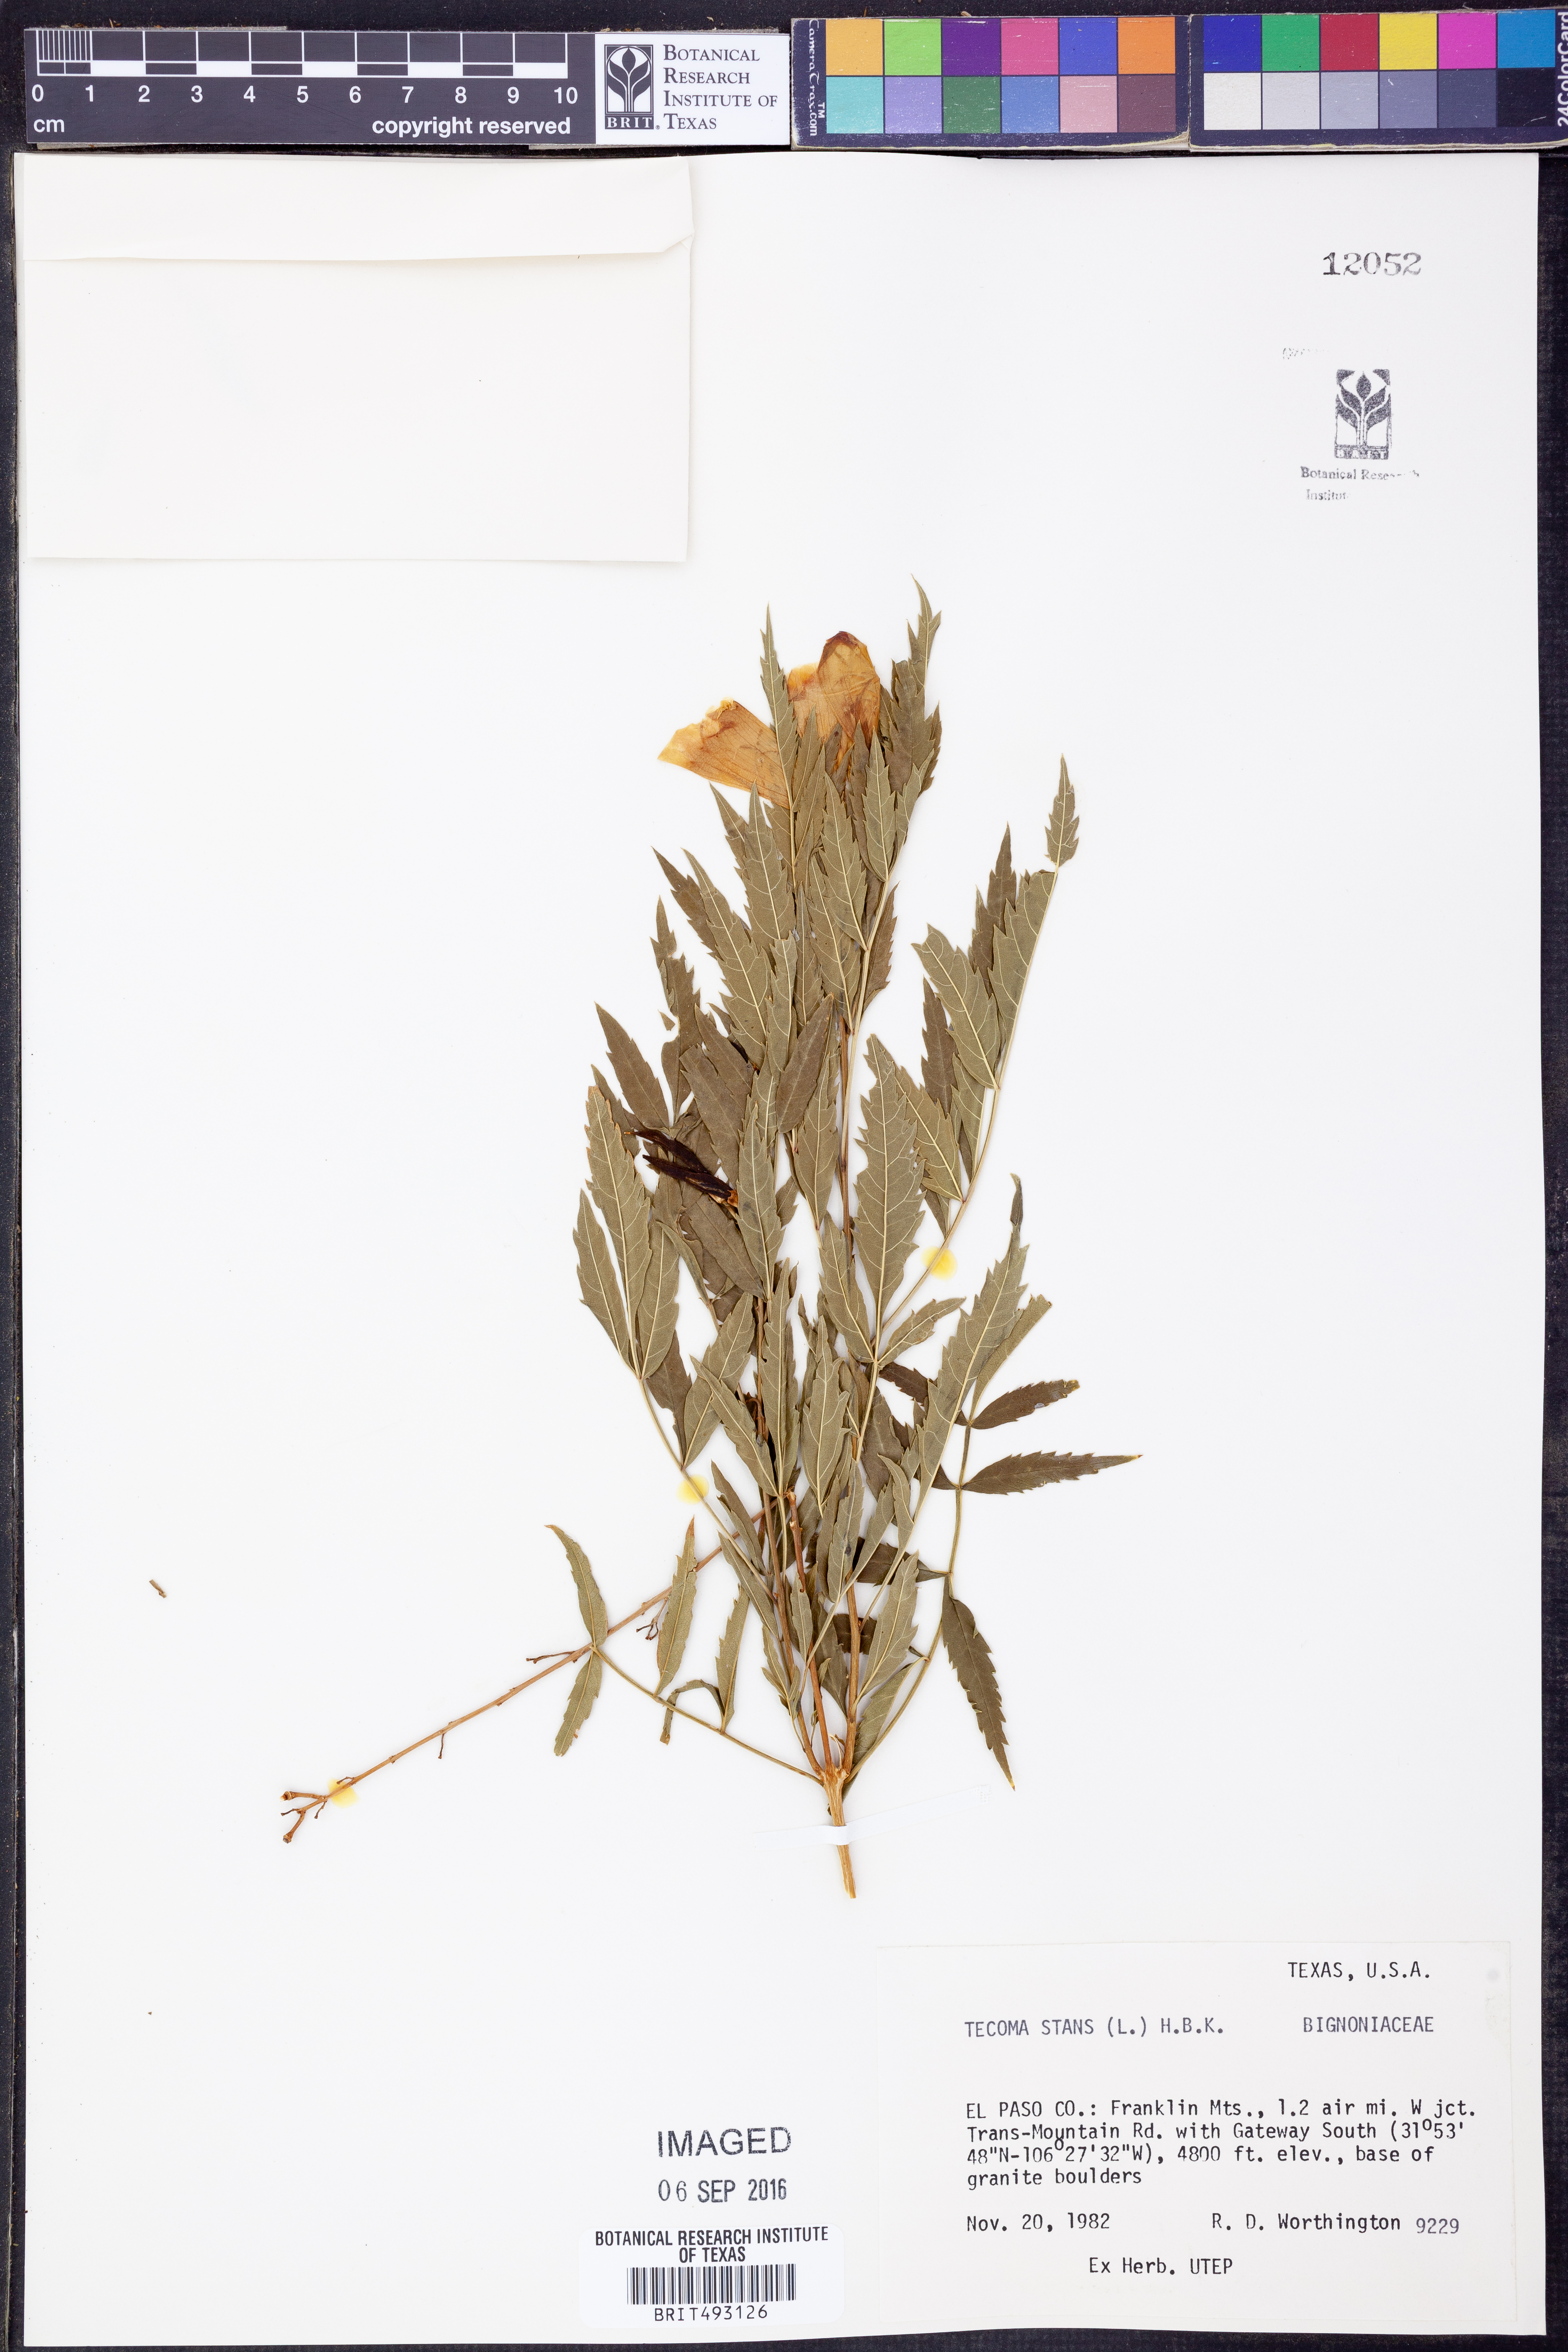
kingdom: Plantae
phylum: Tracheophyta
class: Magnoliopsida
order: Lamiales
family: Bignoniaceae
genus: Tecoma
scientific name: Tecoma stans
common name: Yellow trumpetbush
